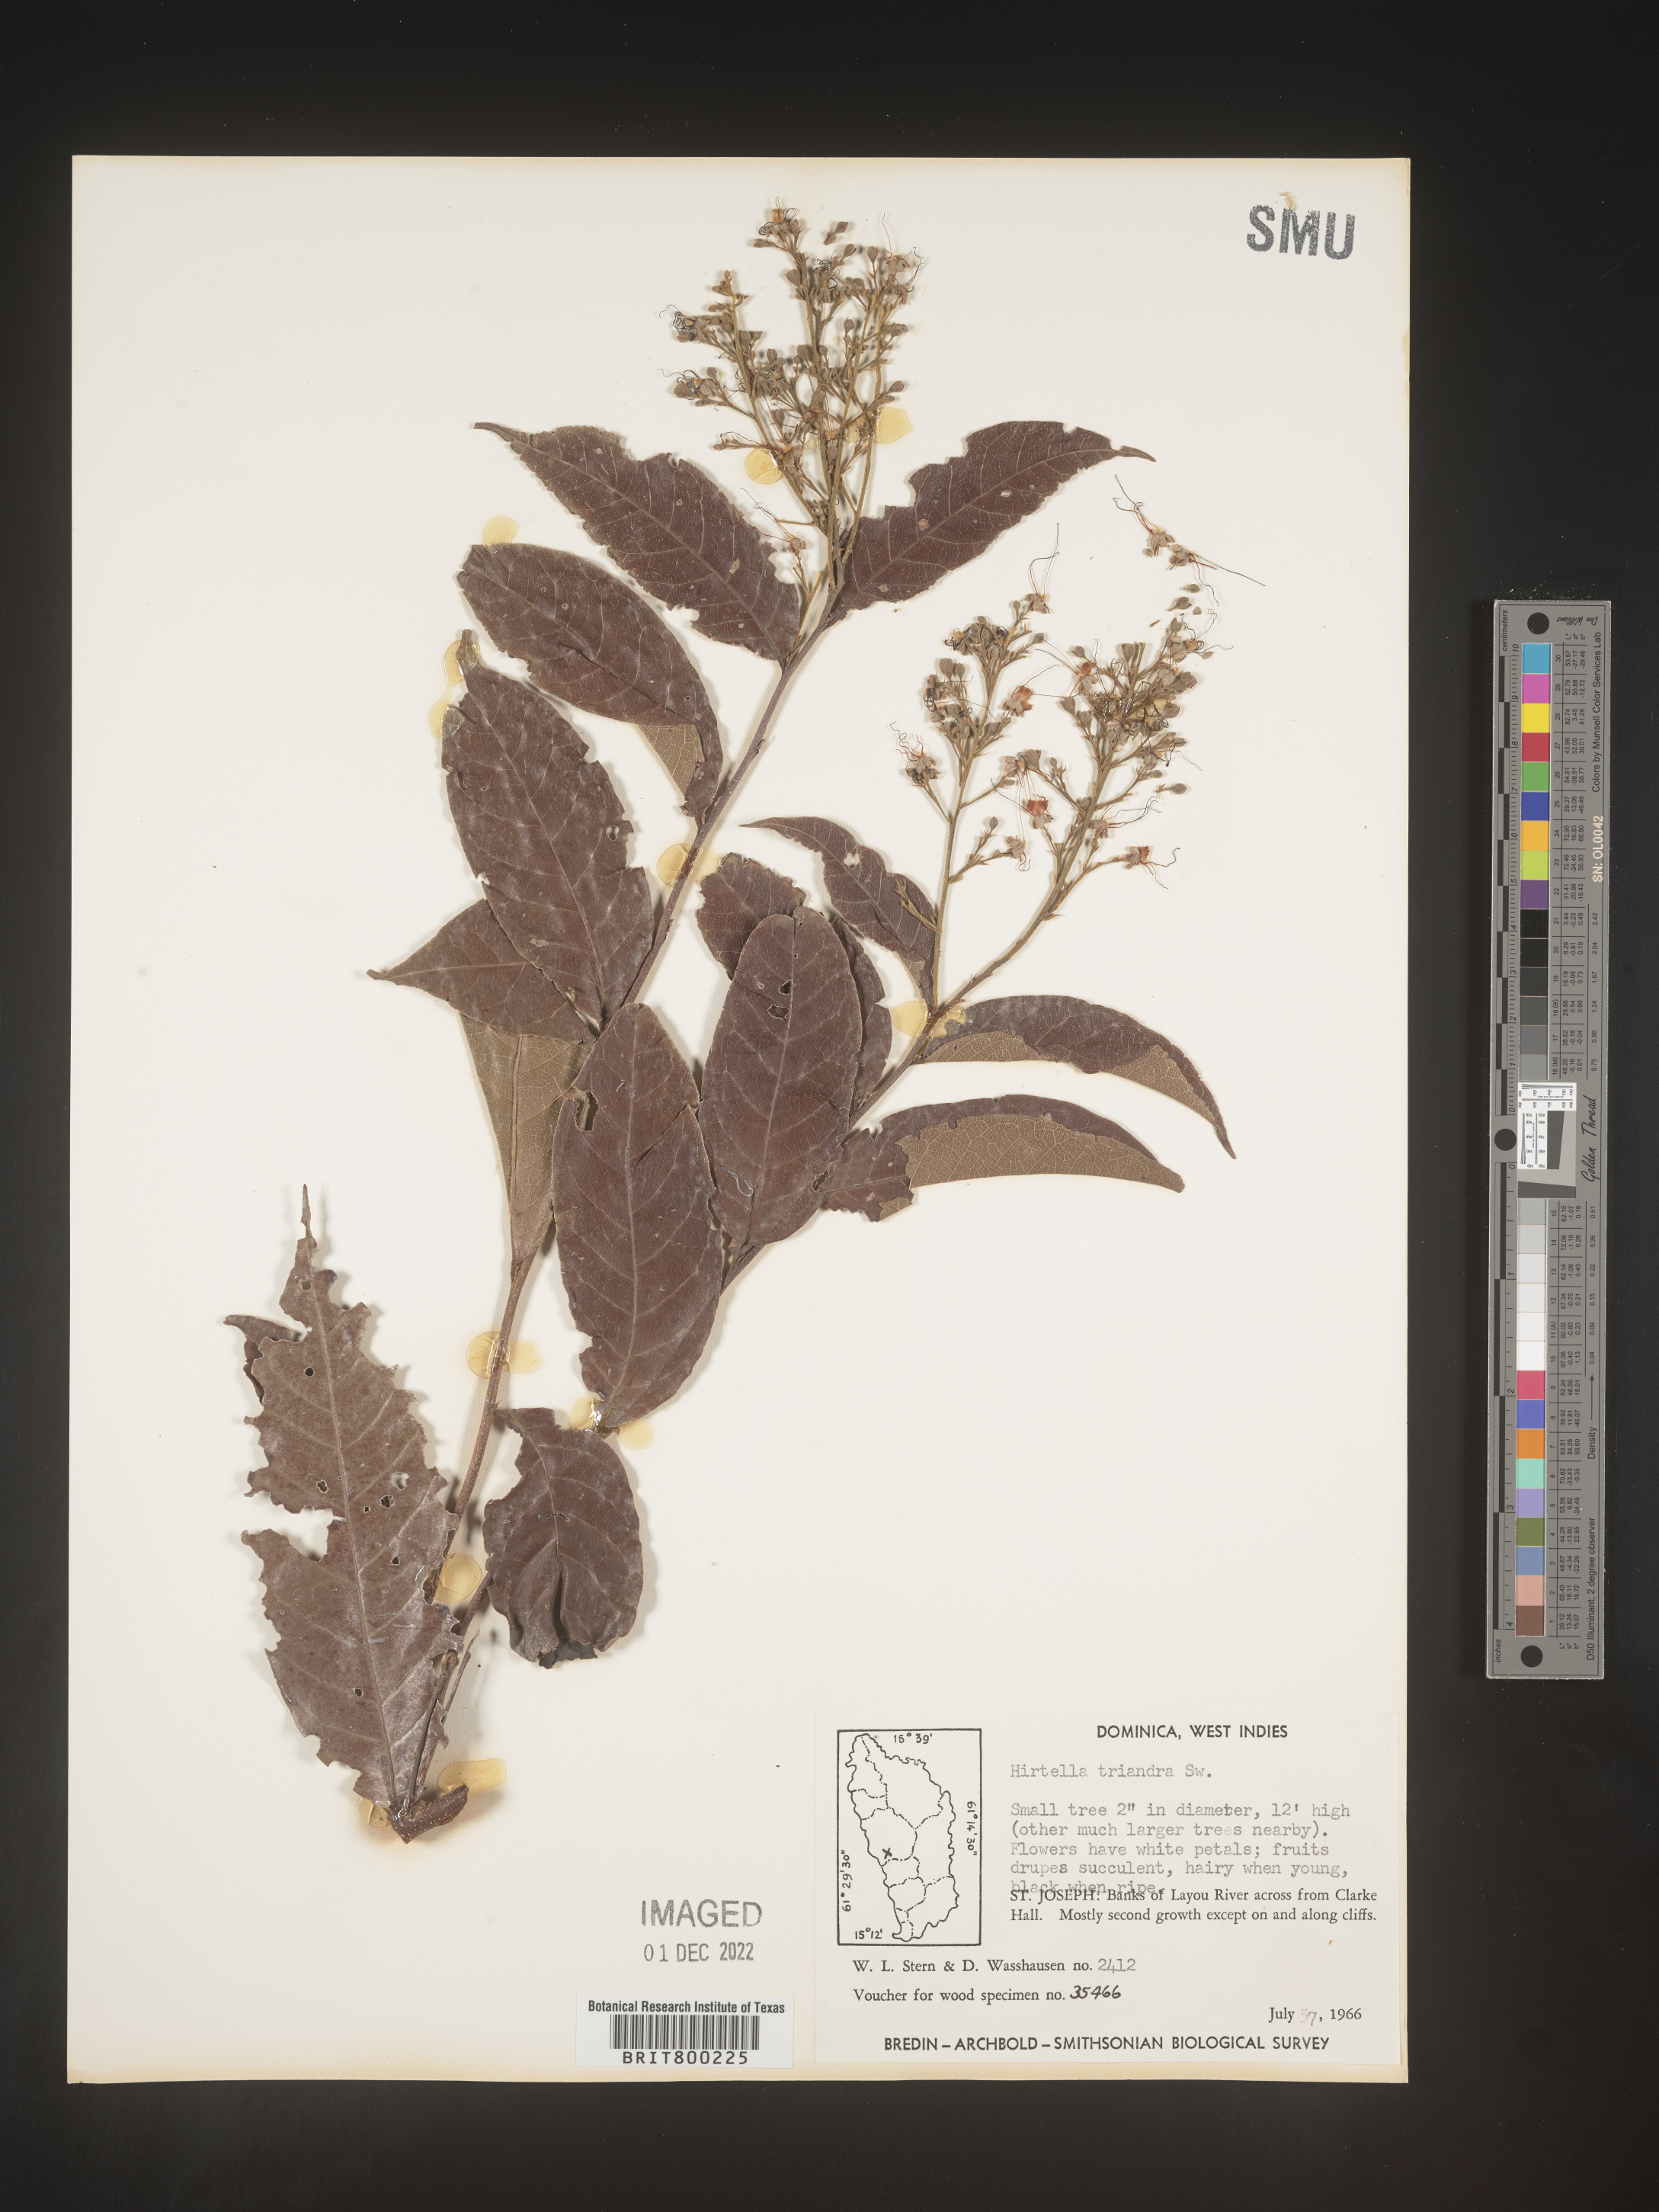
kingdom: Plantae
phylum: Tracheophyta
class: Magnoliopsida
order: Malpighiales
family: Chrysobalanaceae
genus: Hirtella
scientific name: Hirtella
